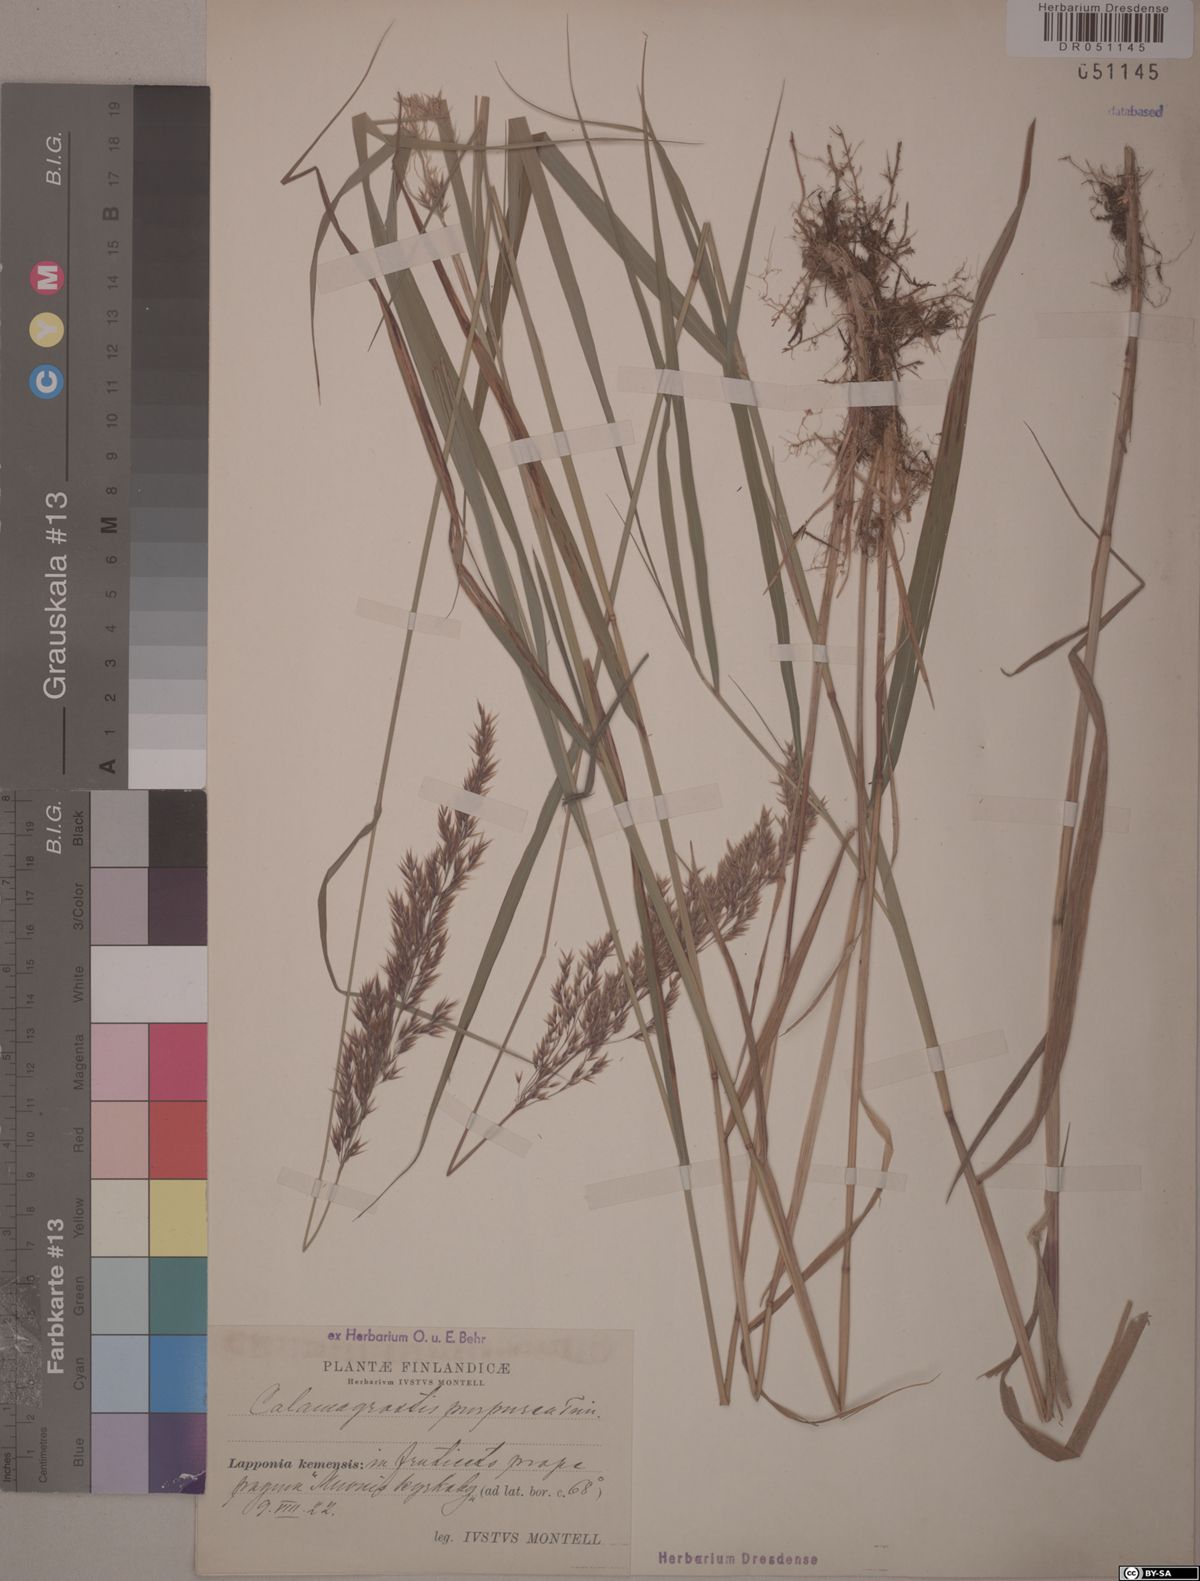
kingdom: Plantae
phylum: Tracheophyta
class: Liliopsida
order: Poales
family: Poaceae
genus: Calamagrostis
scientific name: Calamagrostis purpurea
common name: Scandinavian small-reed
